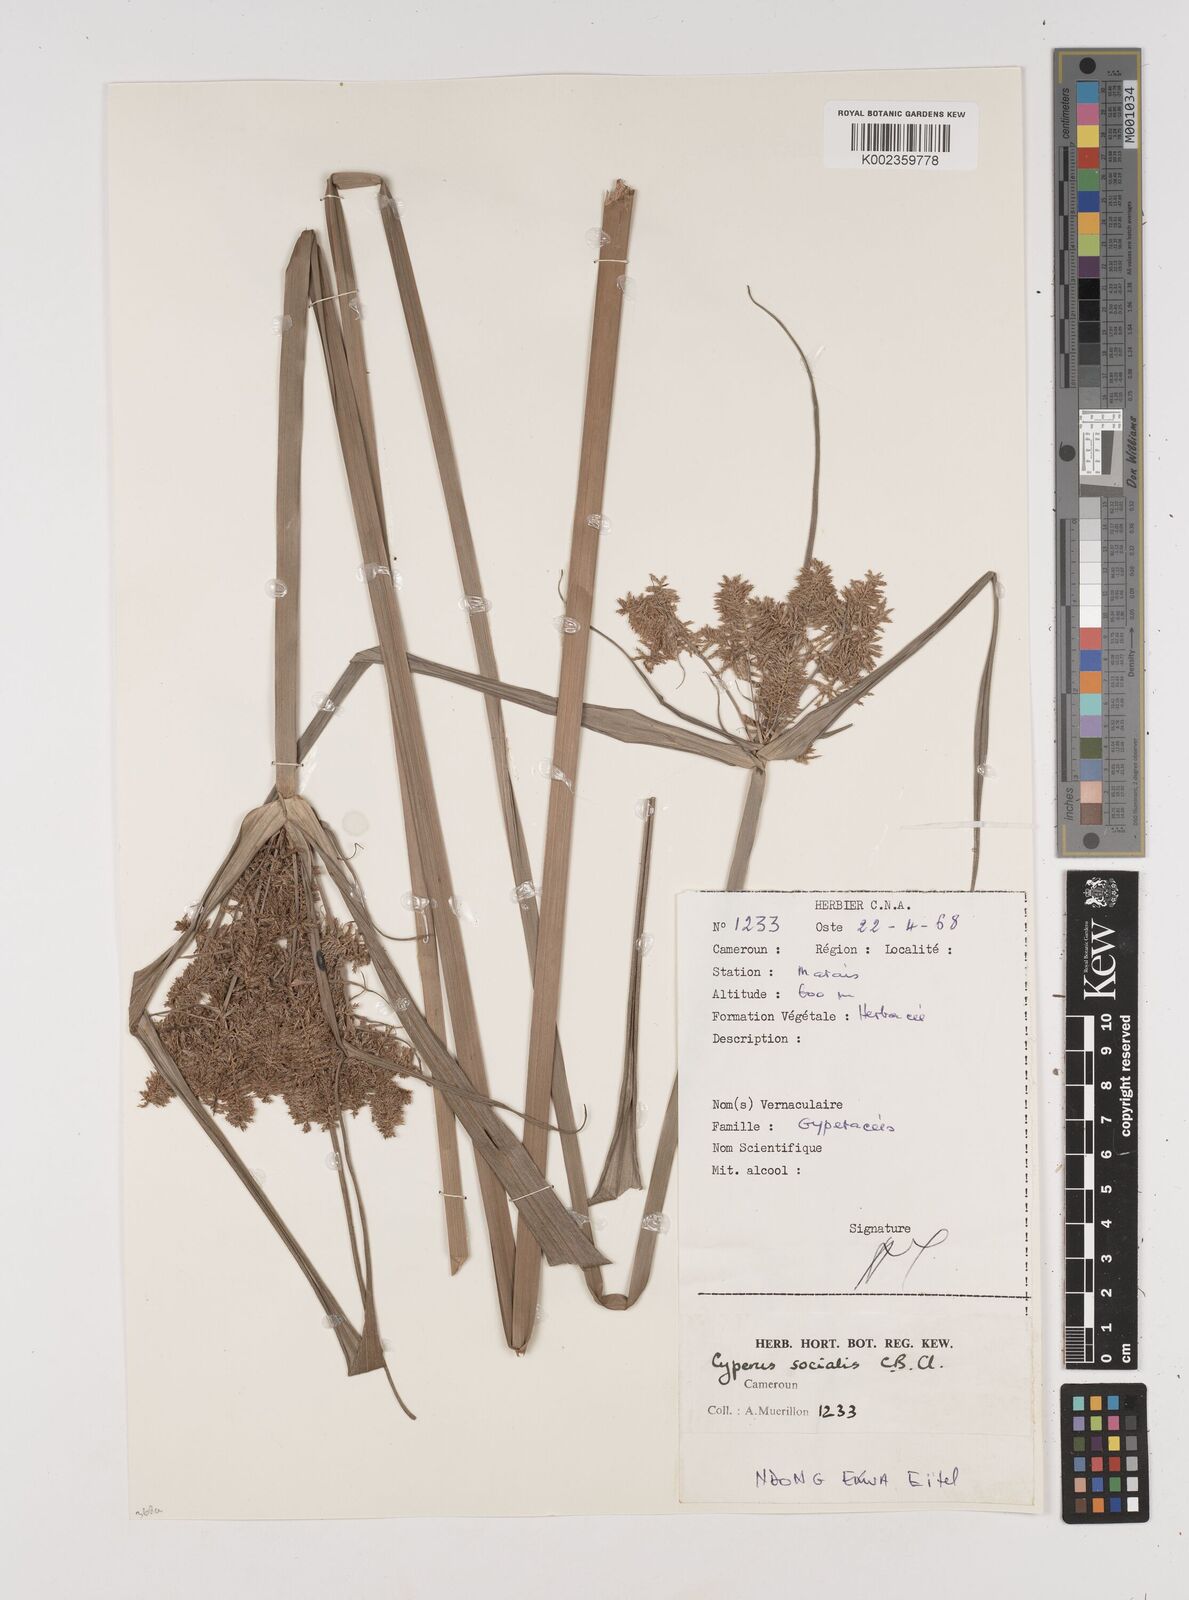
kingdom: Plantae
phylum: Tracheophyta
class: Liliopsida
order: Poales
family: Cyperaceae
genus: Cyperus
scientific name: Cyperus pseudopilosus
